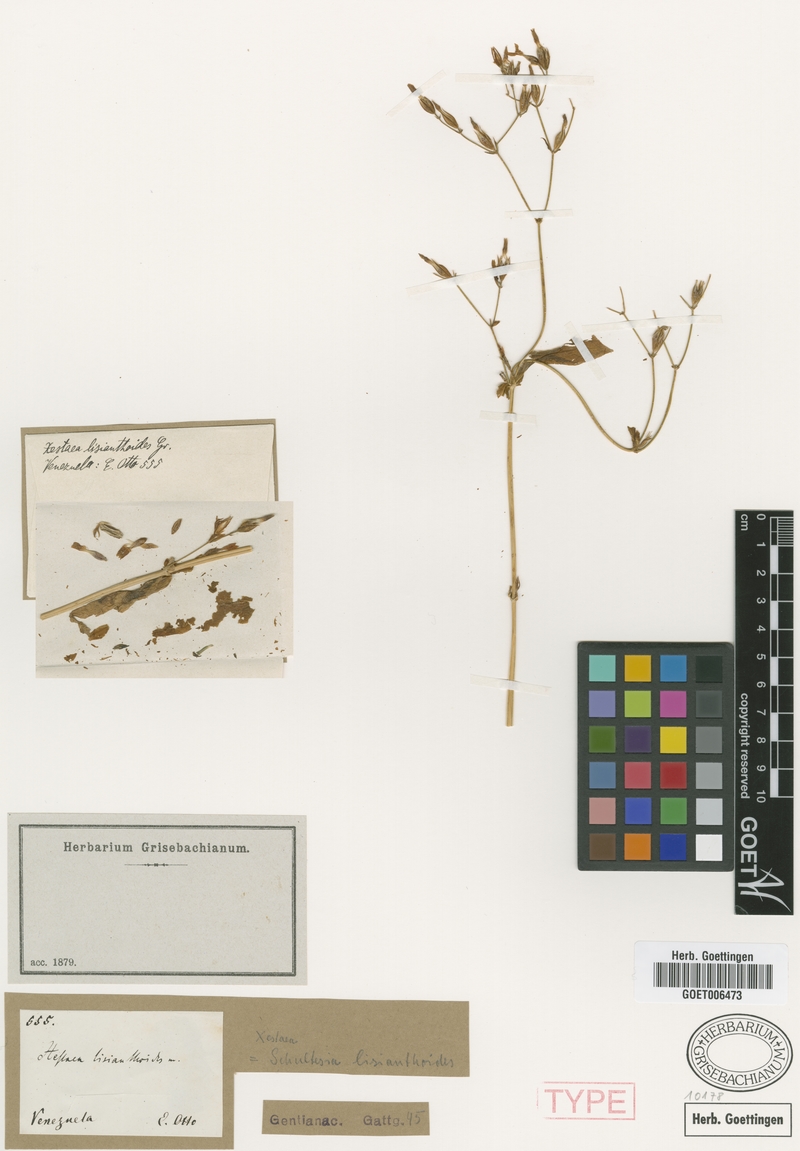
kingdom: Plantae
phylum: Tracheophyta
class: Magnoliopsida
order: Gentianales
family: Gentianaceae
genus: Schultesia
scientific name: Schultesia lisianthoides
